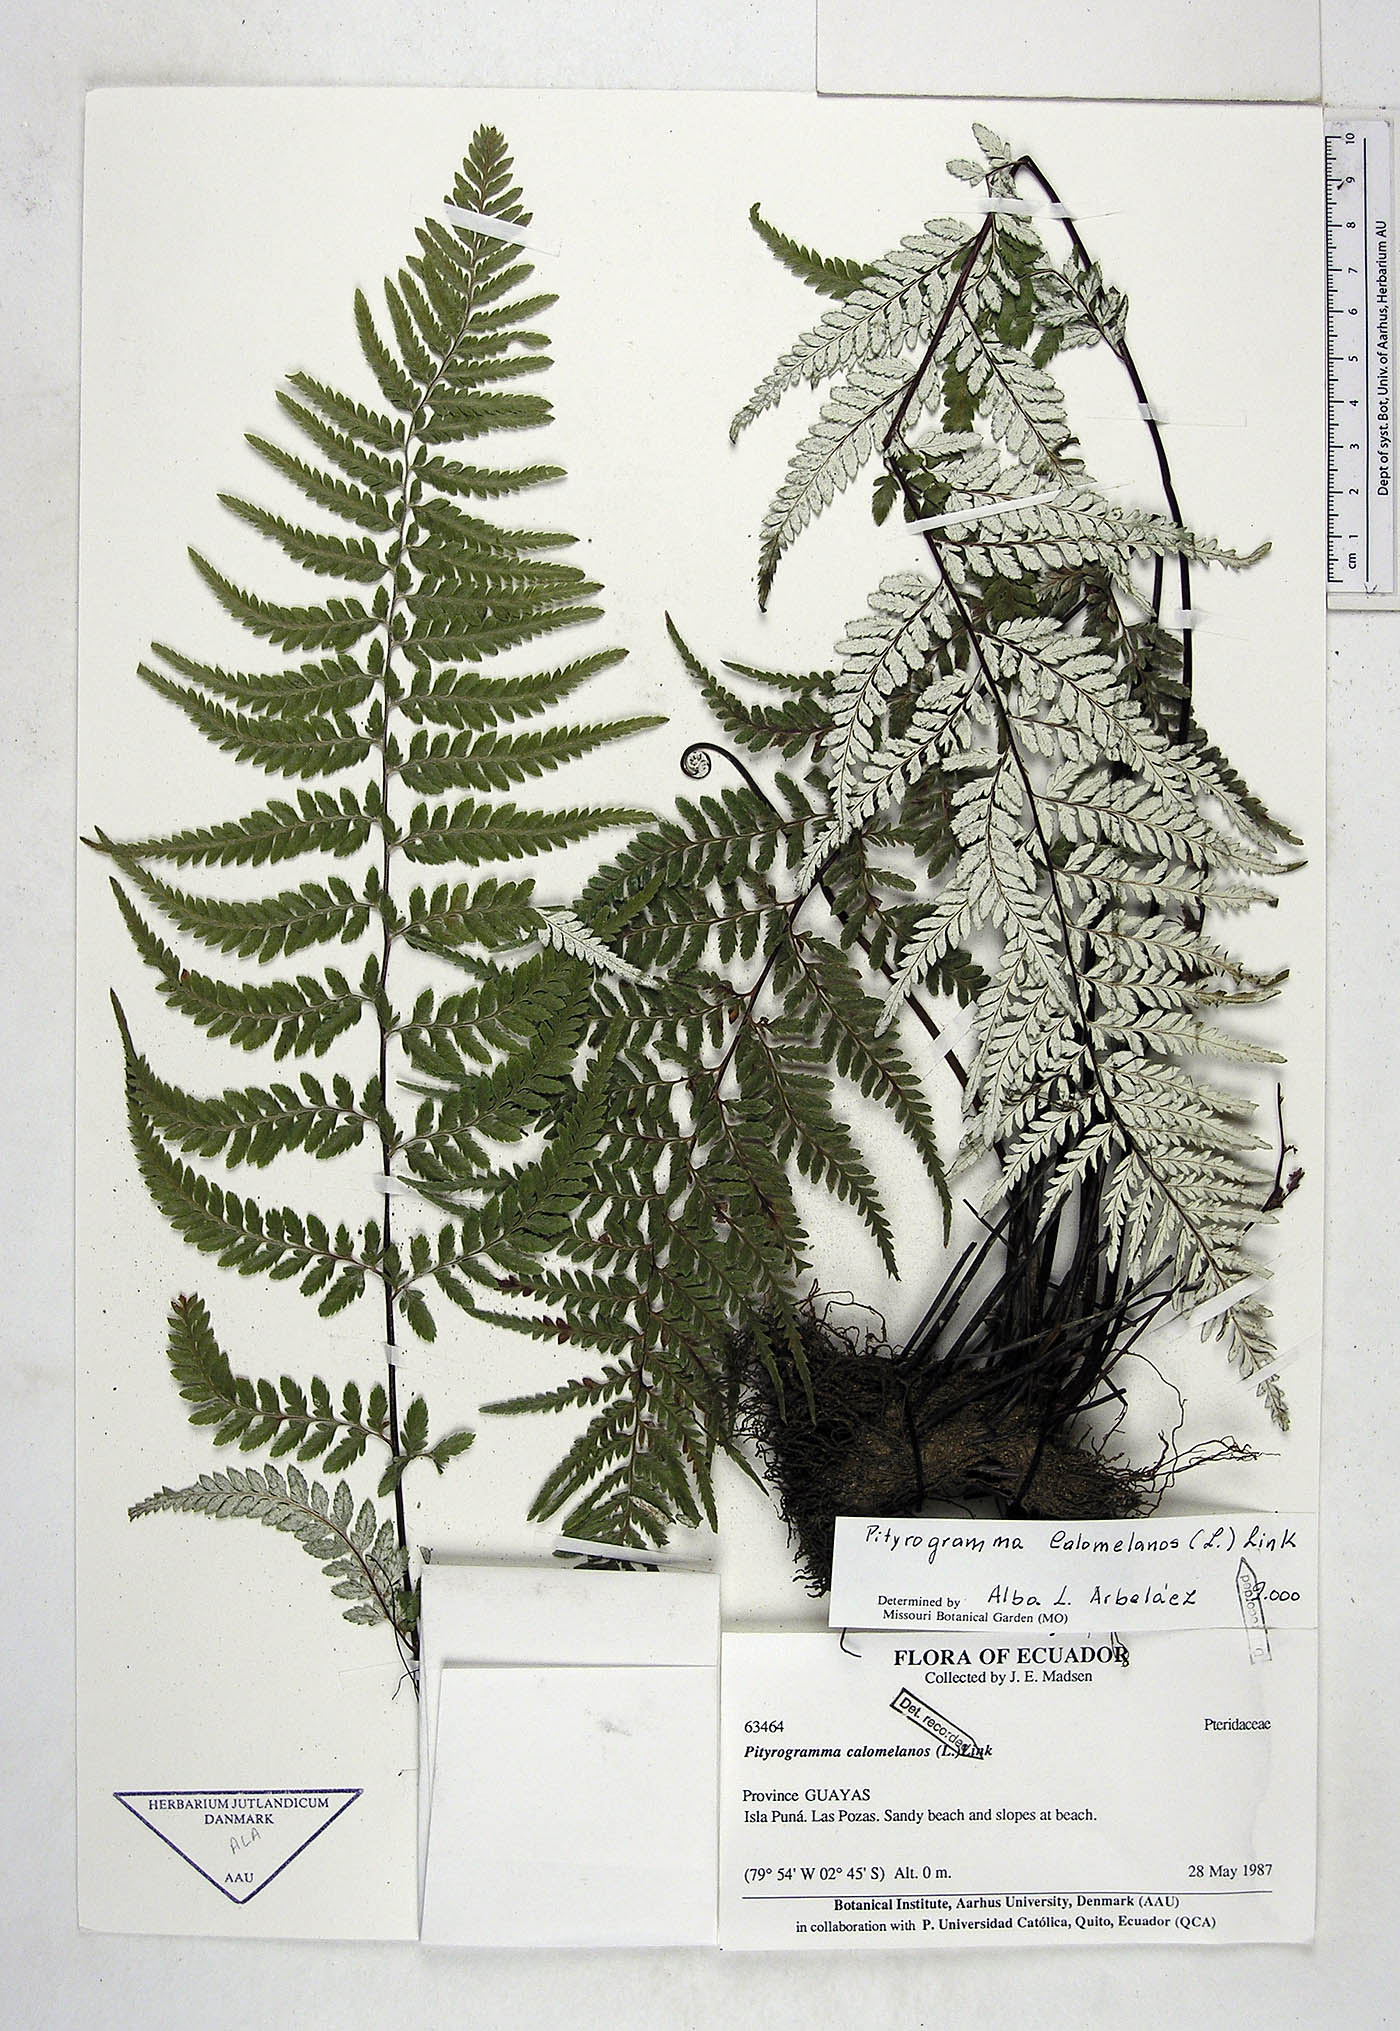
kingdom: Plantae
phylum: Tracheophyta
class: Polypodiopsida
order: Polypodiales
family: Pteridaceae
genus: Pityrogramma
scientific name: Pityrogramma calomelanos
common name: Dixie silverback fern
